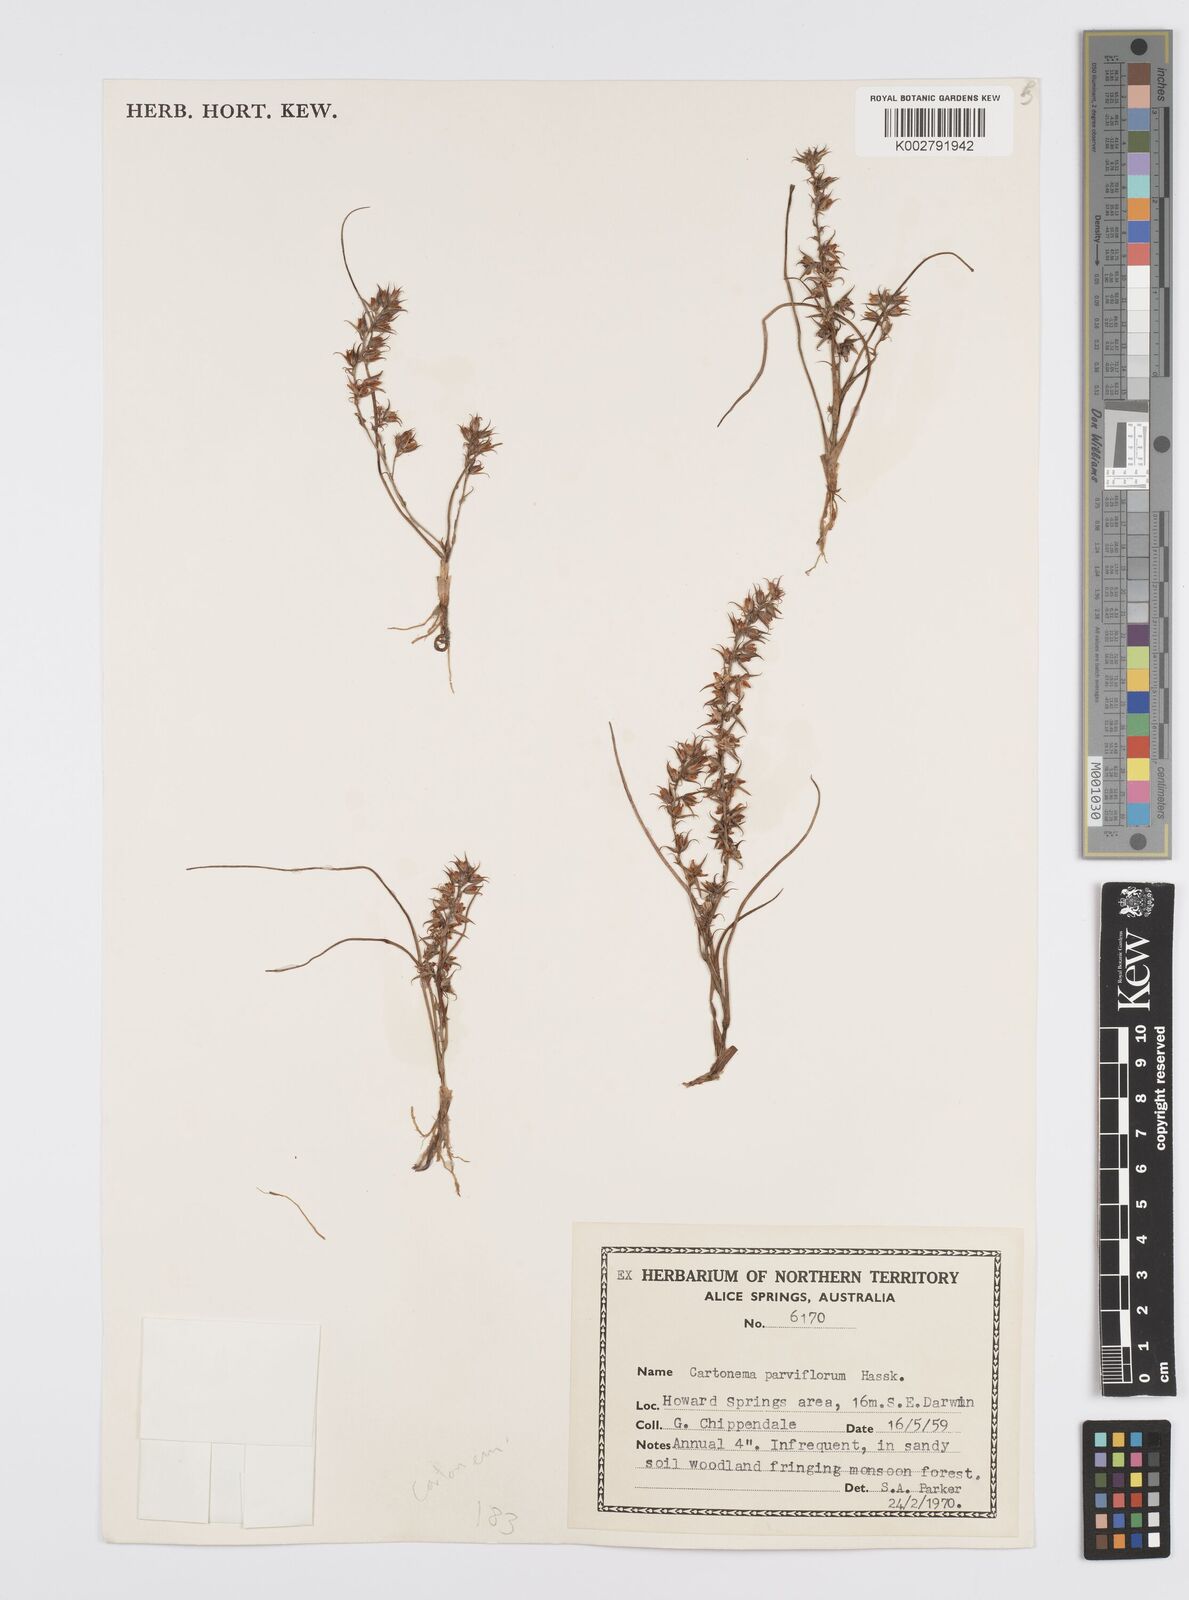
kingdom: Plantae
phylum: Tracheophyta
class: Liliopsida
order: Commelinales
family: Commelinaceae
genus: Cartonema
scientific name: Cartonema parviflorum
